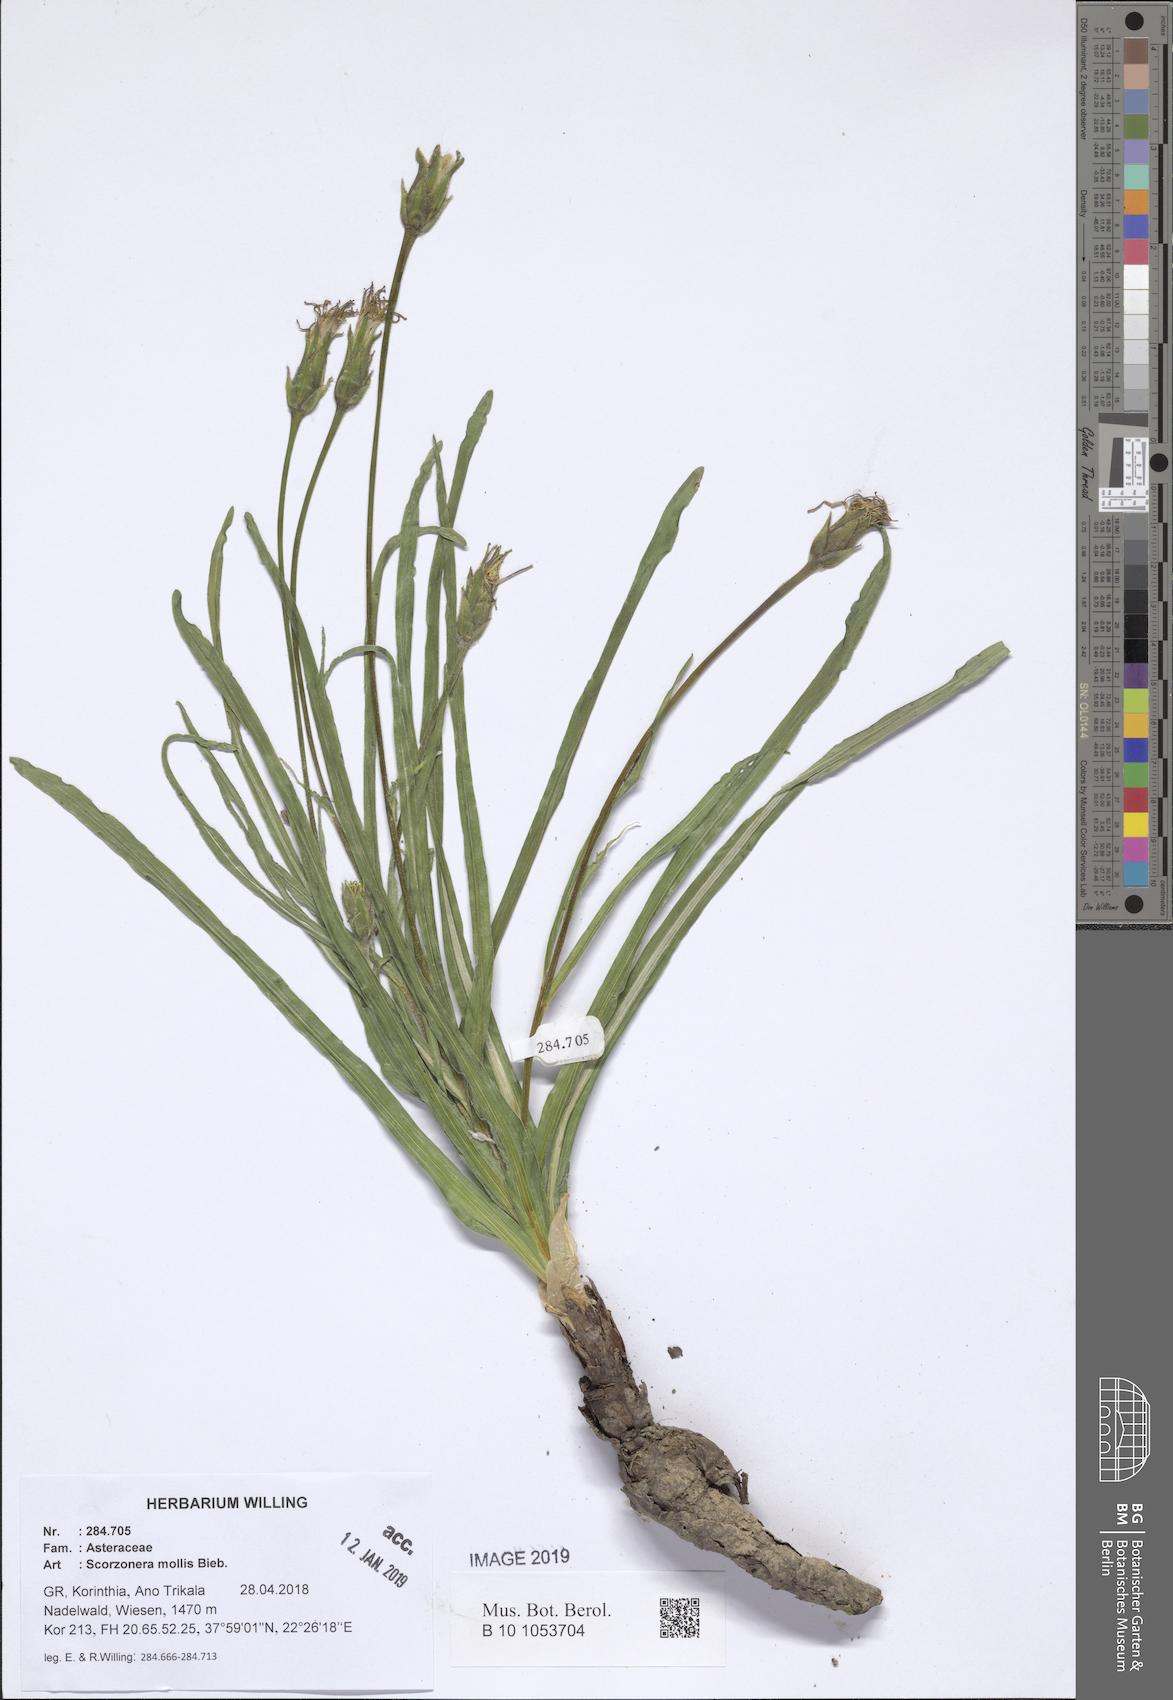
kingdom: Plantae
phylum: Tracheophyta
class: Magnoliopsida
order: Asterales
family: Asteraceae
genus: Candollea
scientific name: Candollea mollis
